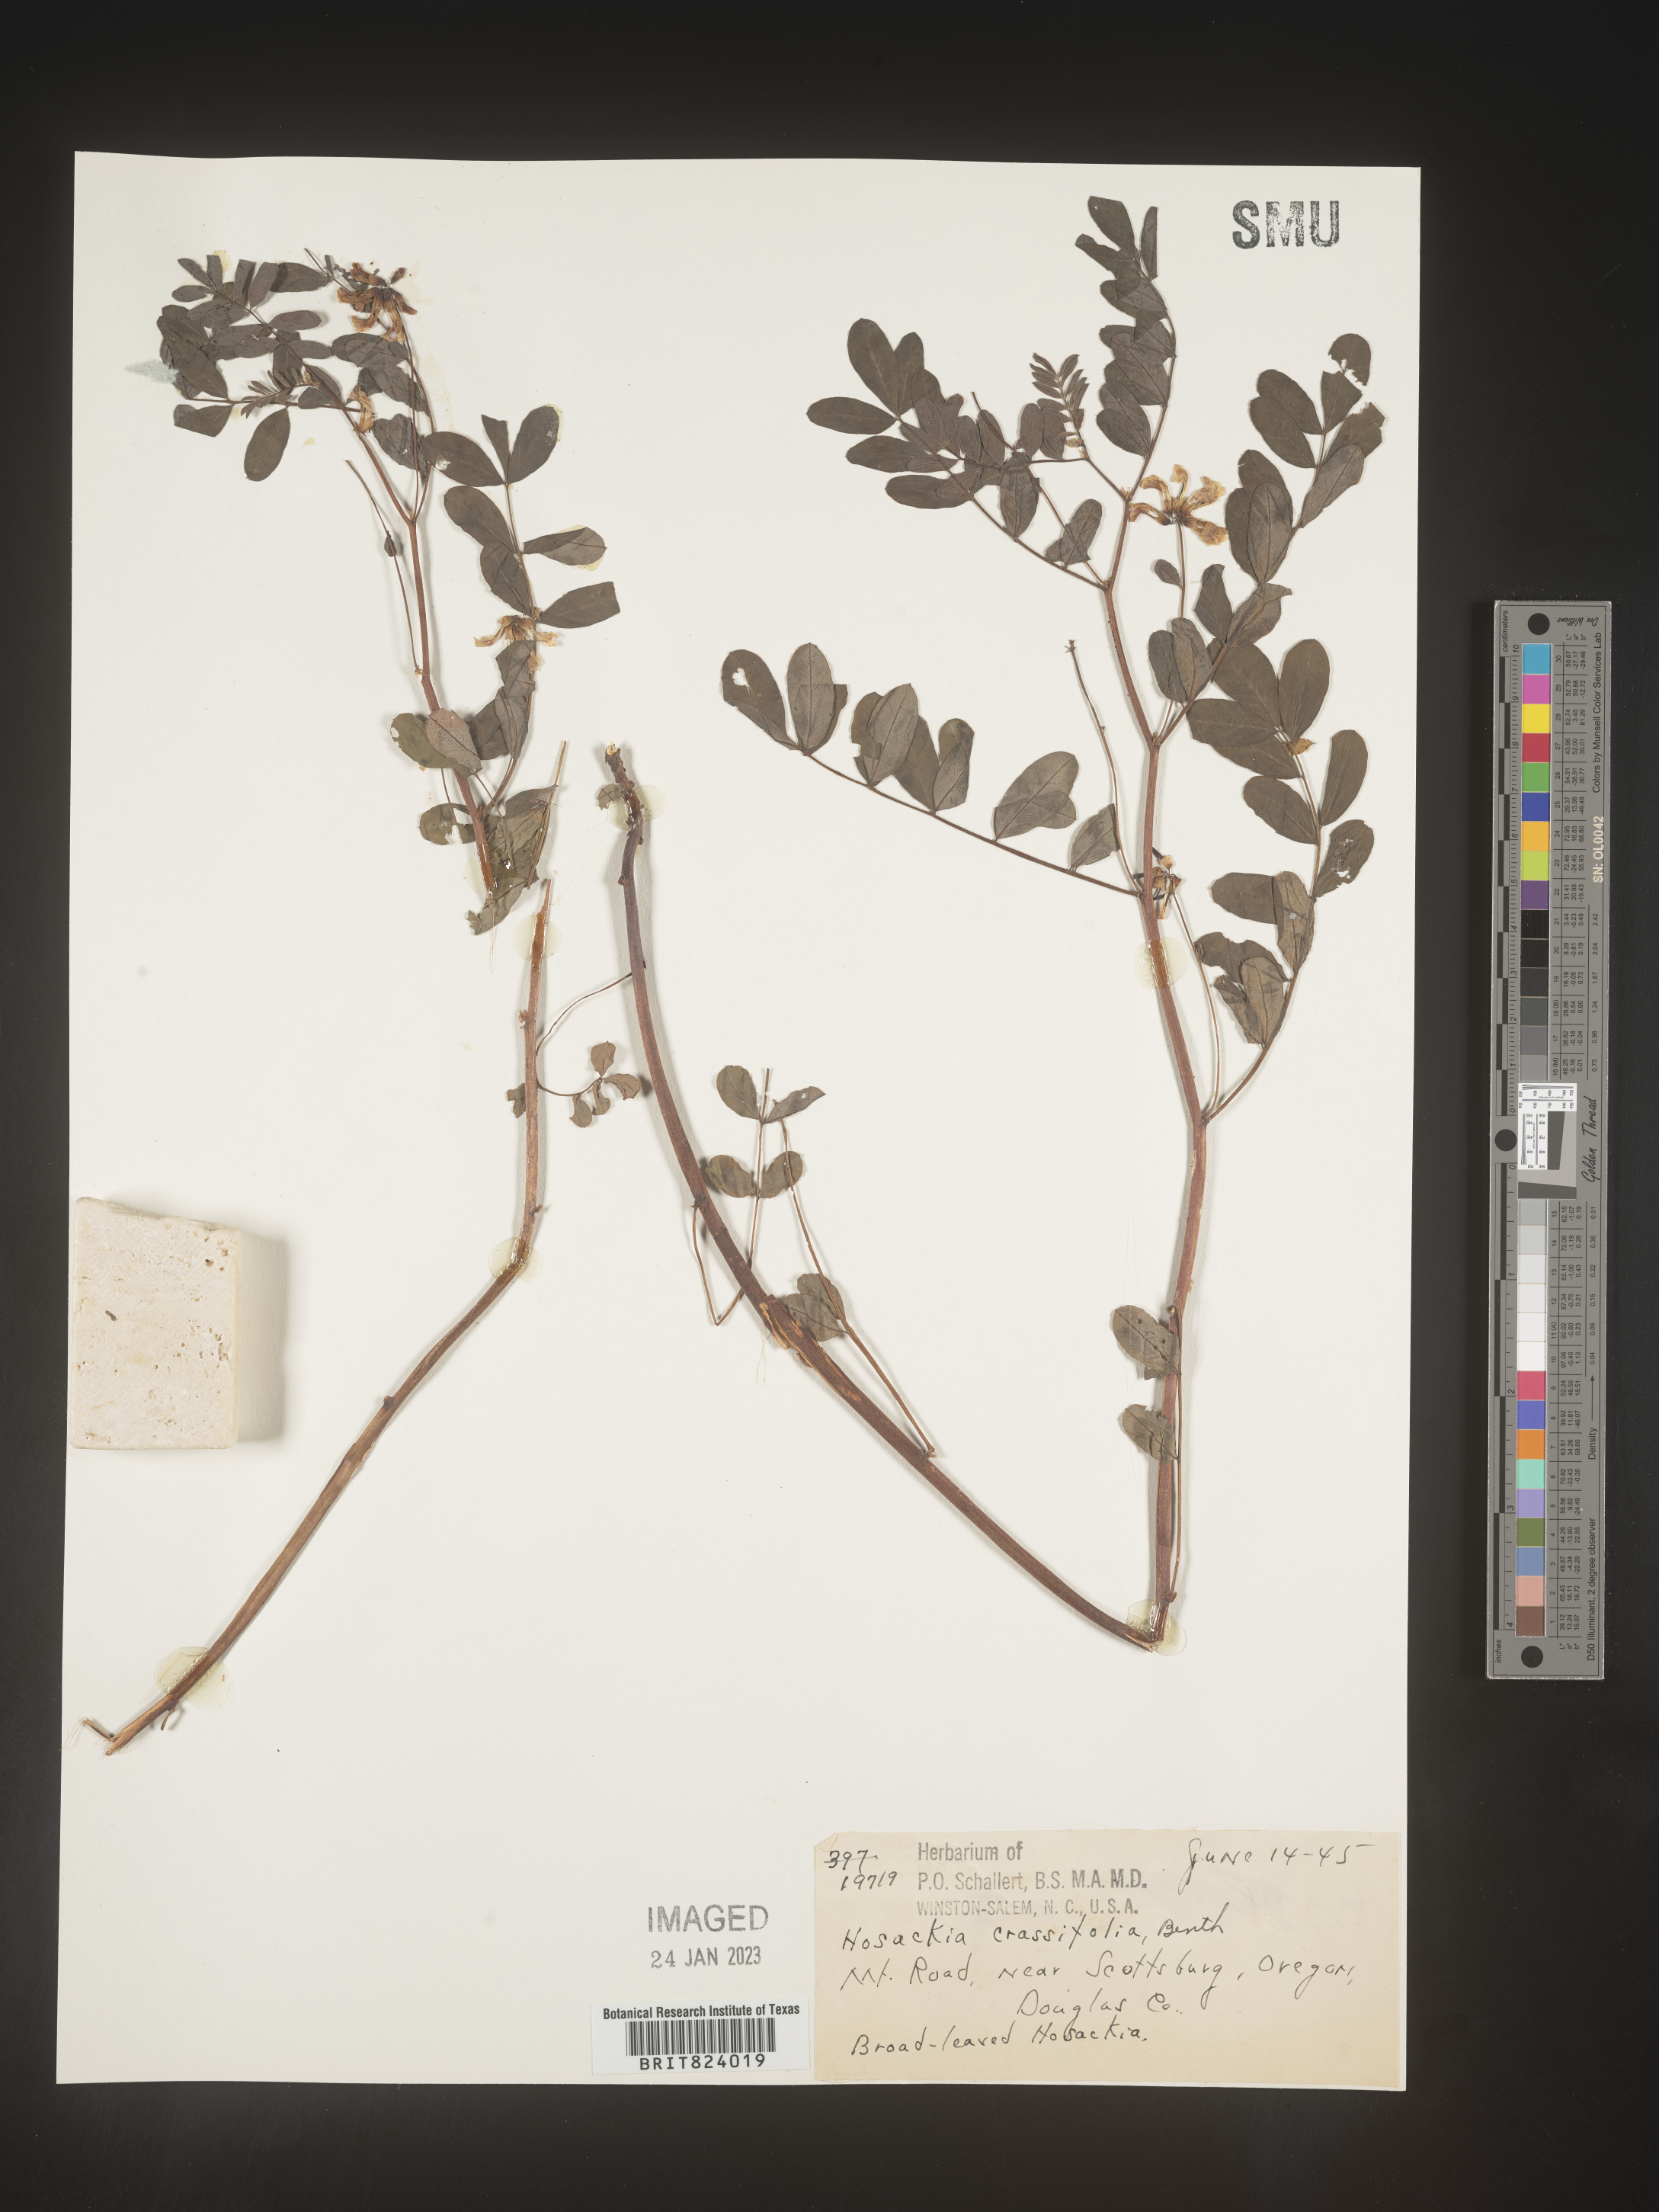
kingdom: Plantae
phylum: Tracheophyta
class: Magnoliopsida
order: Fabales
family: Fabaceae
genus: Hosackia
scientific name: Hosackia crassifolia
